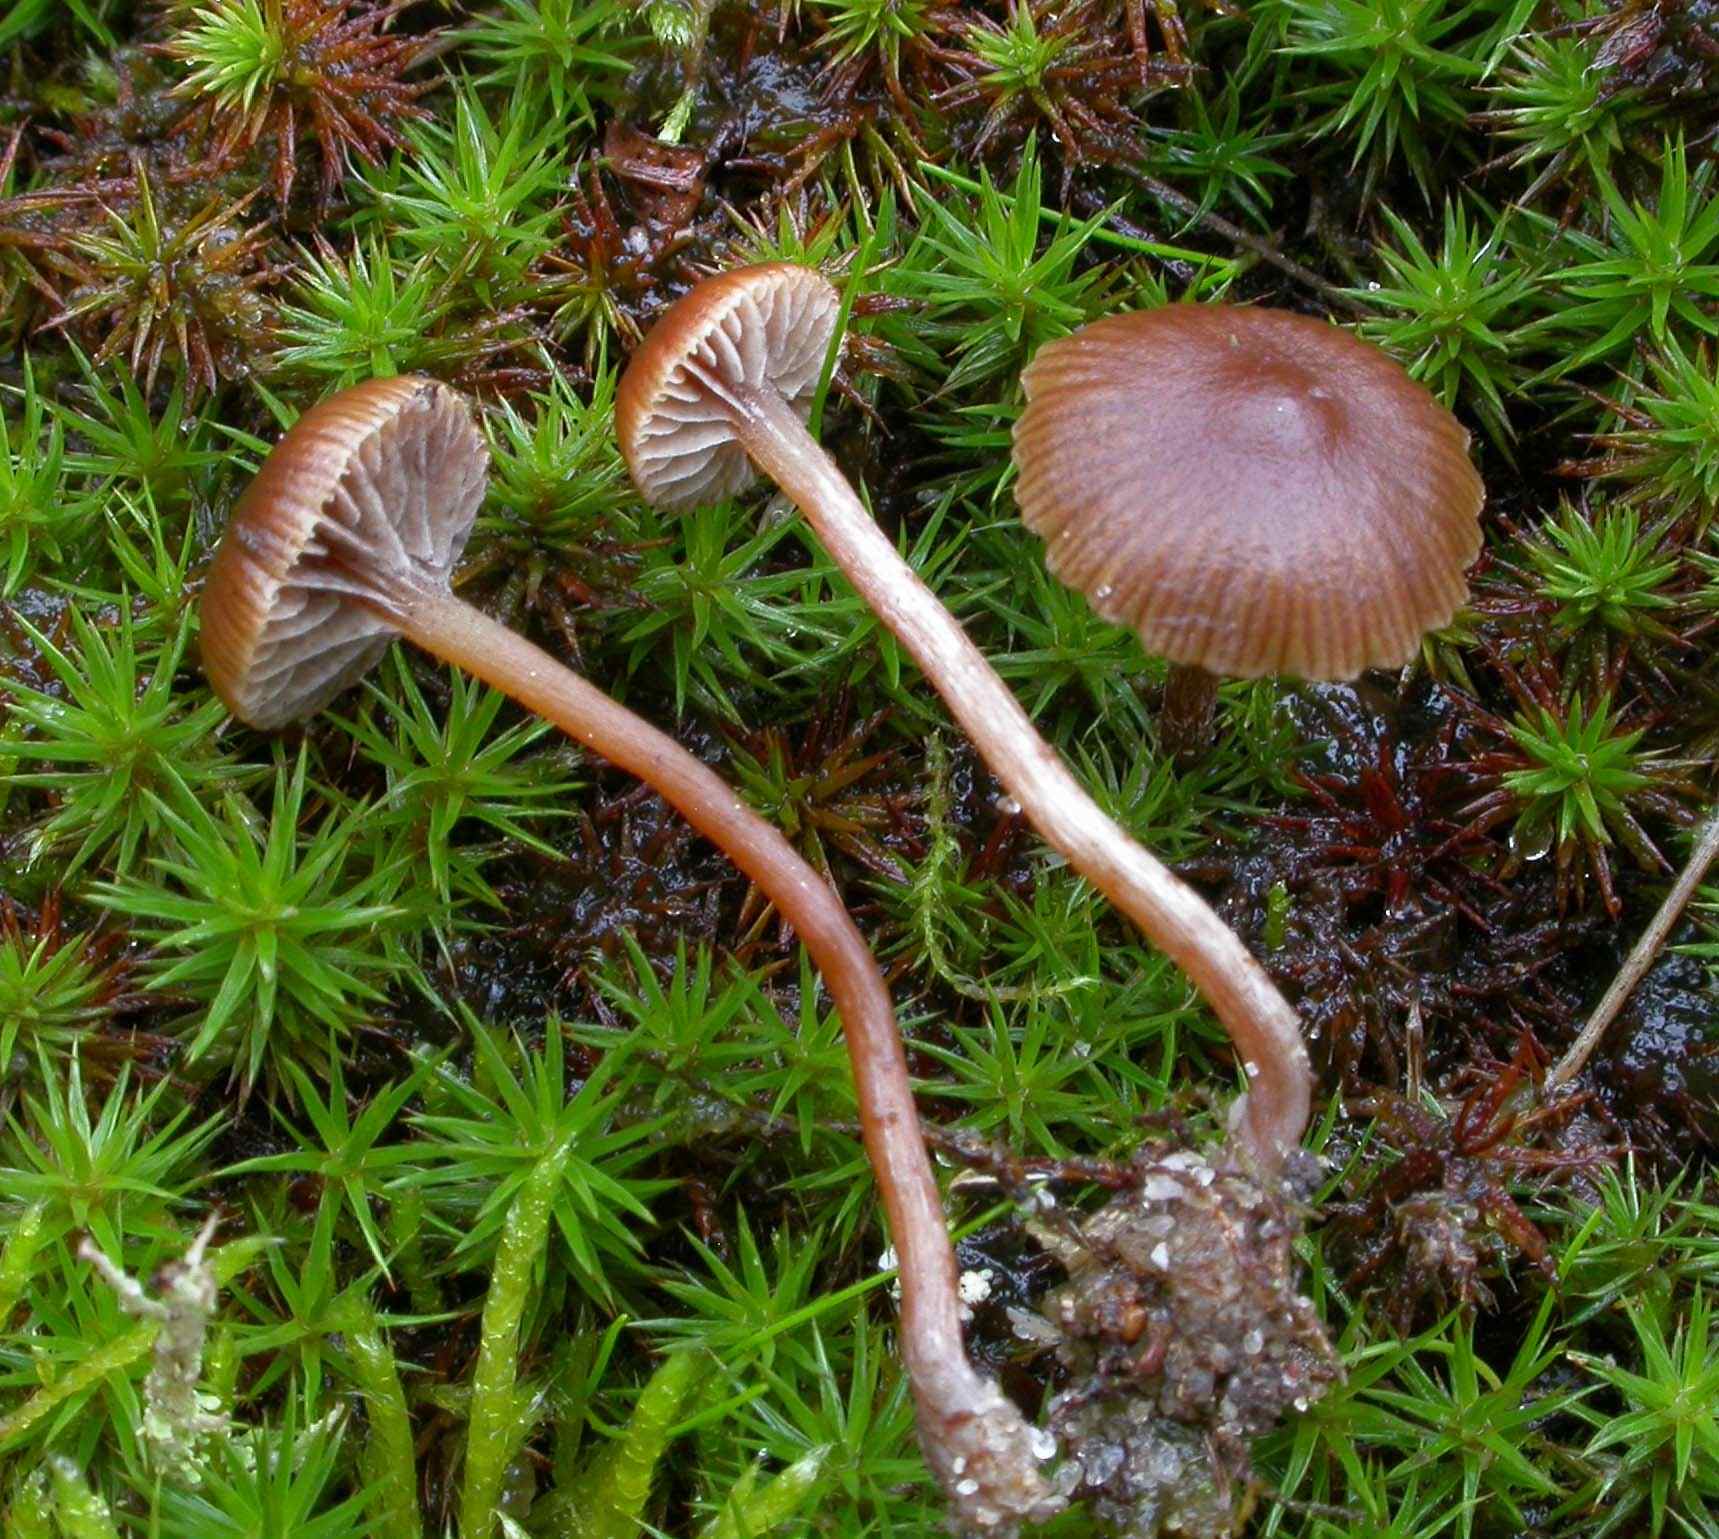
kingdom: Fungi
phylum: Basidiomycota
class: Agaricomycetes
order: Agaricales
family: Strophariaceae
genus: Deconica
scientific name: Deconica montana
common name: rødbrun stråhat
